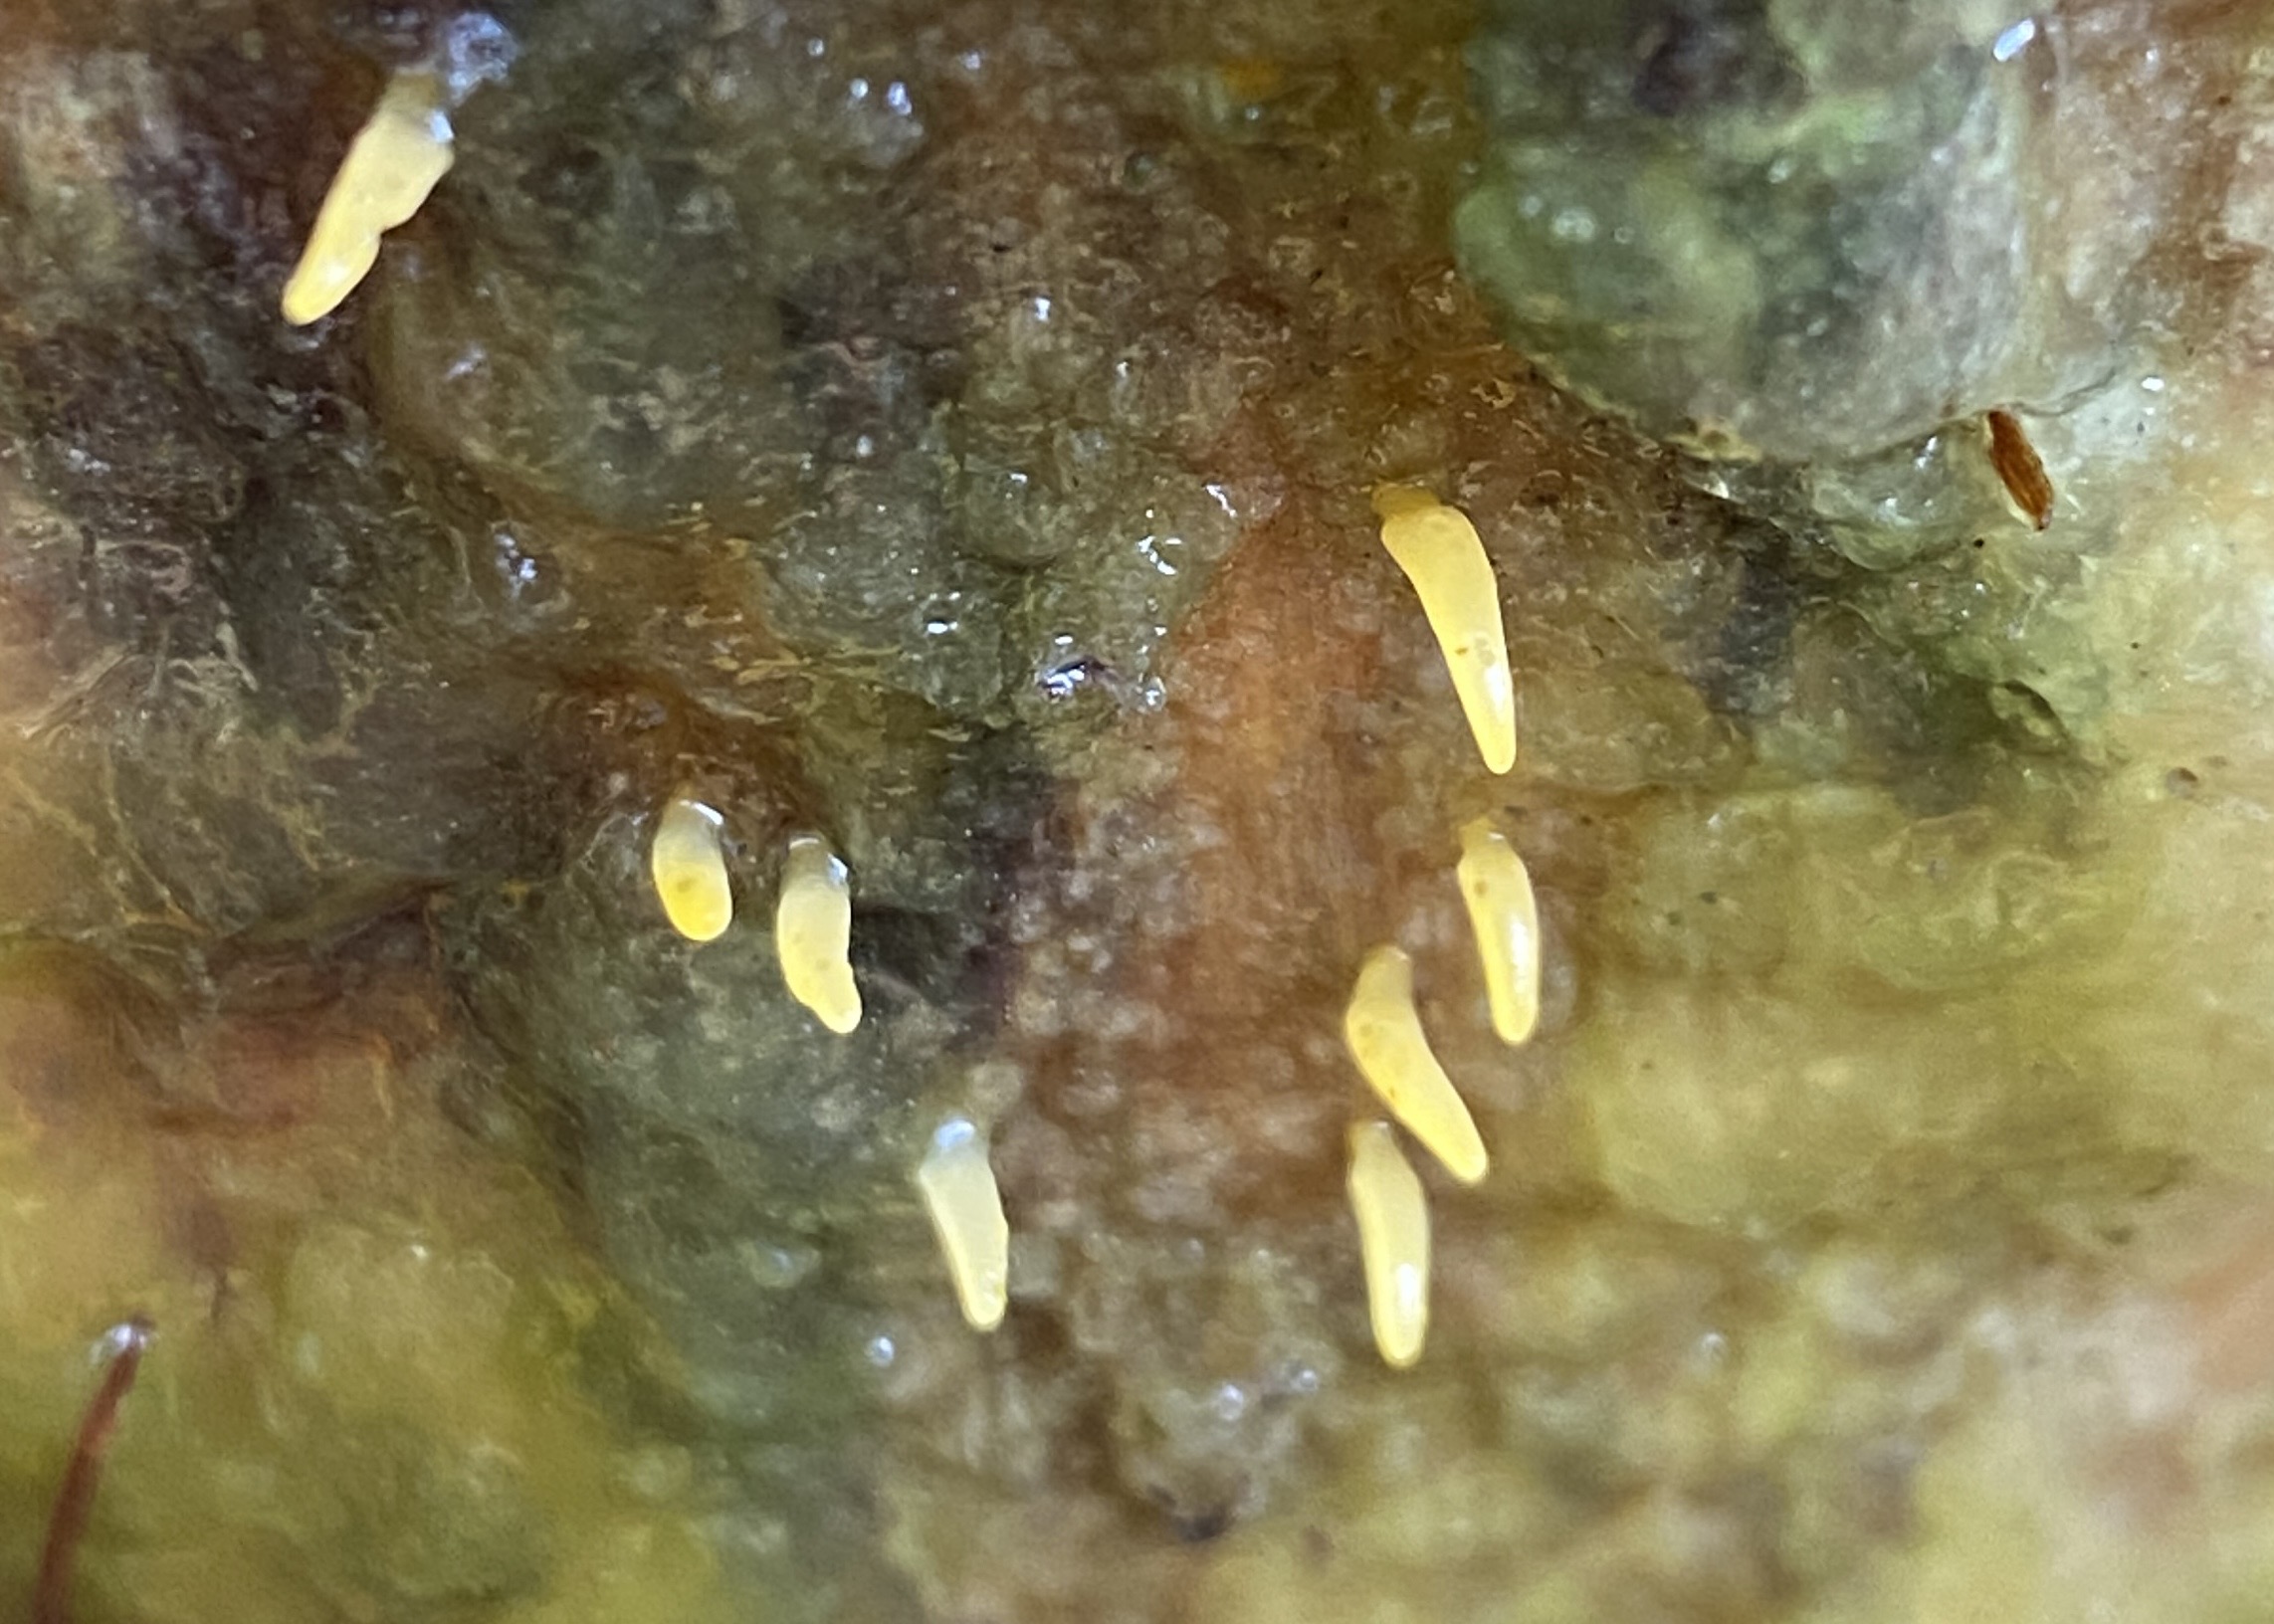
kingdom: Fungi
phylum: Basidiomycota
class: Dacrymycetes
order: Dacrymycetales
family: Dacrymycetaceae
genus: Calocera
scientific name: Calocera cornea
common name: liden guldgaffel
